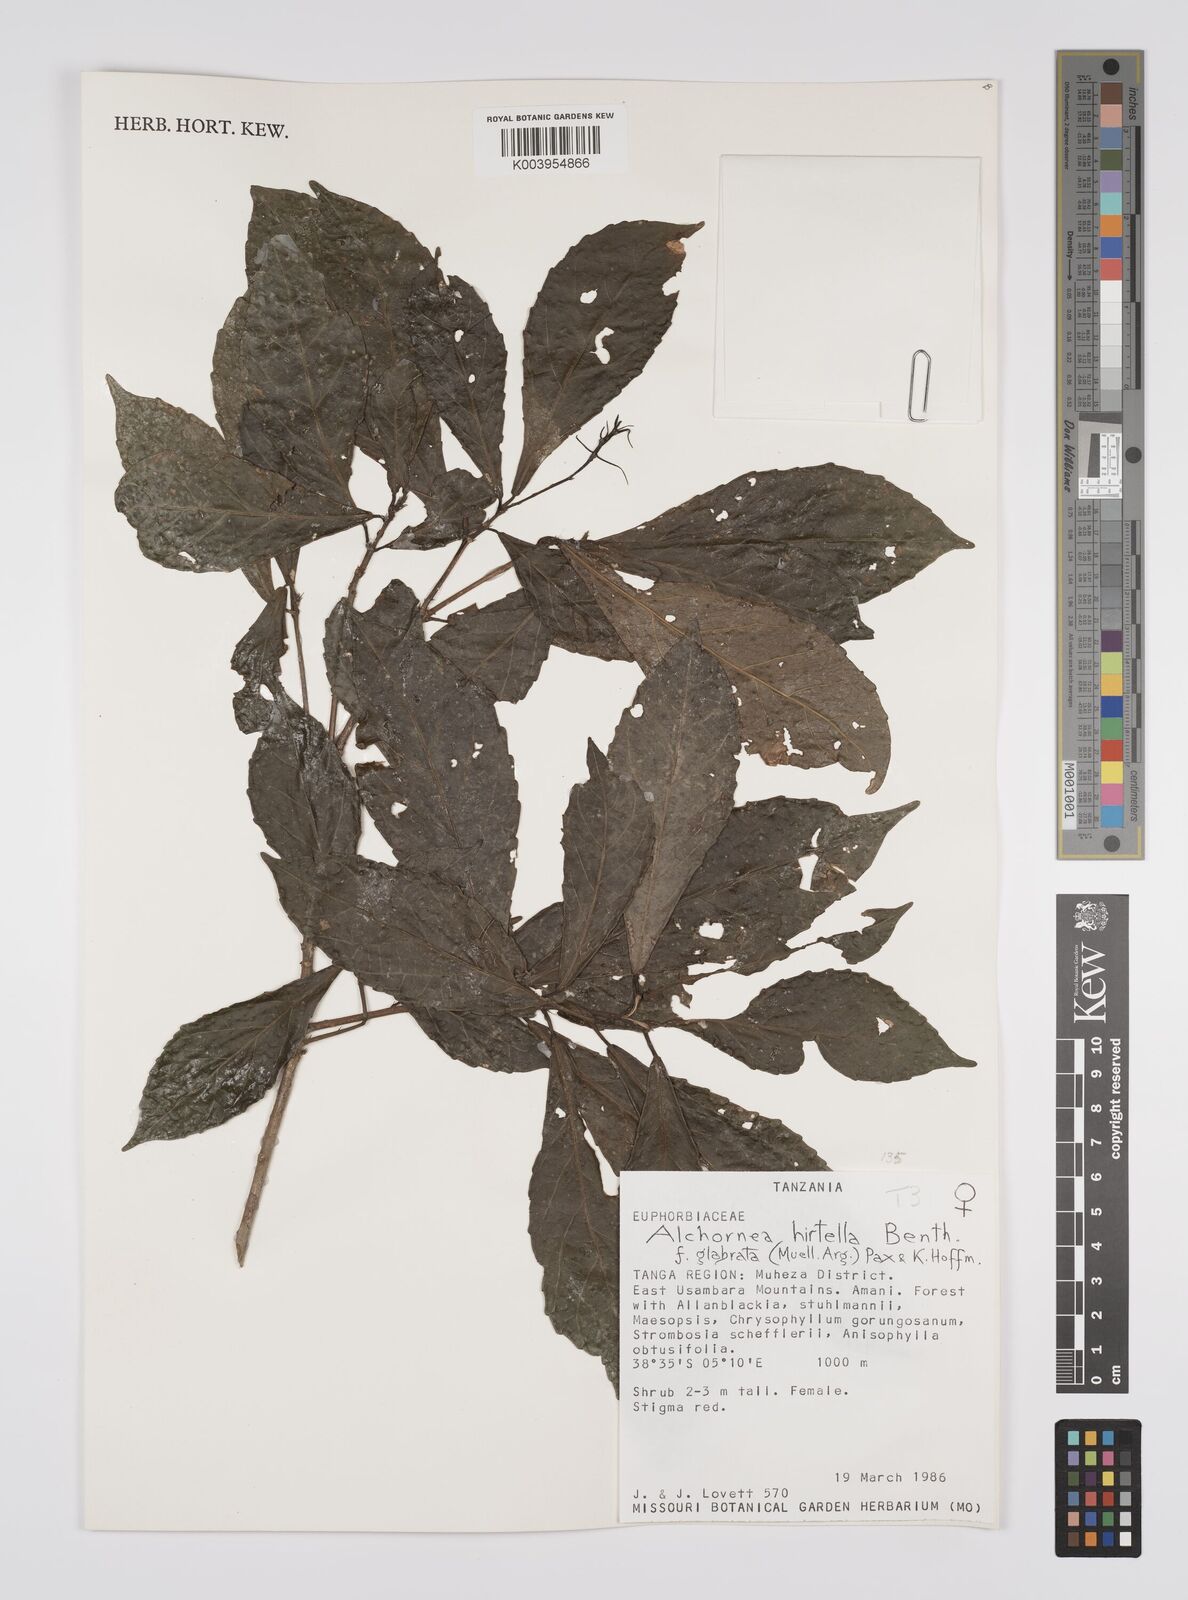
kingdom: Plantae
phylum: Tracheophyta
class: Magnoliopsida
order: Malpighiales
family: Euphorbiaceae
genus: Alchornea
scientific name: Alchornea hirtella
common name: Forest bead-string
